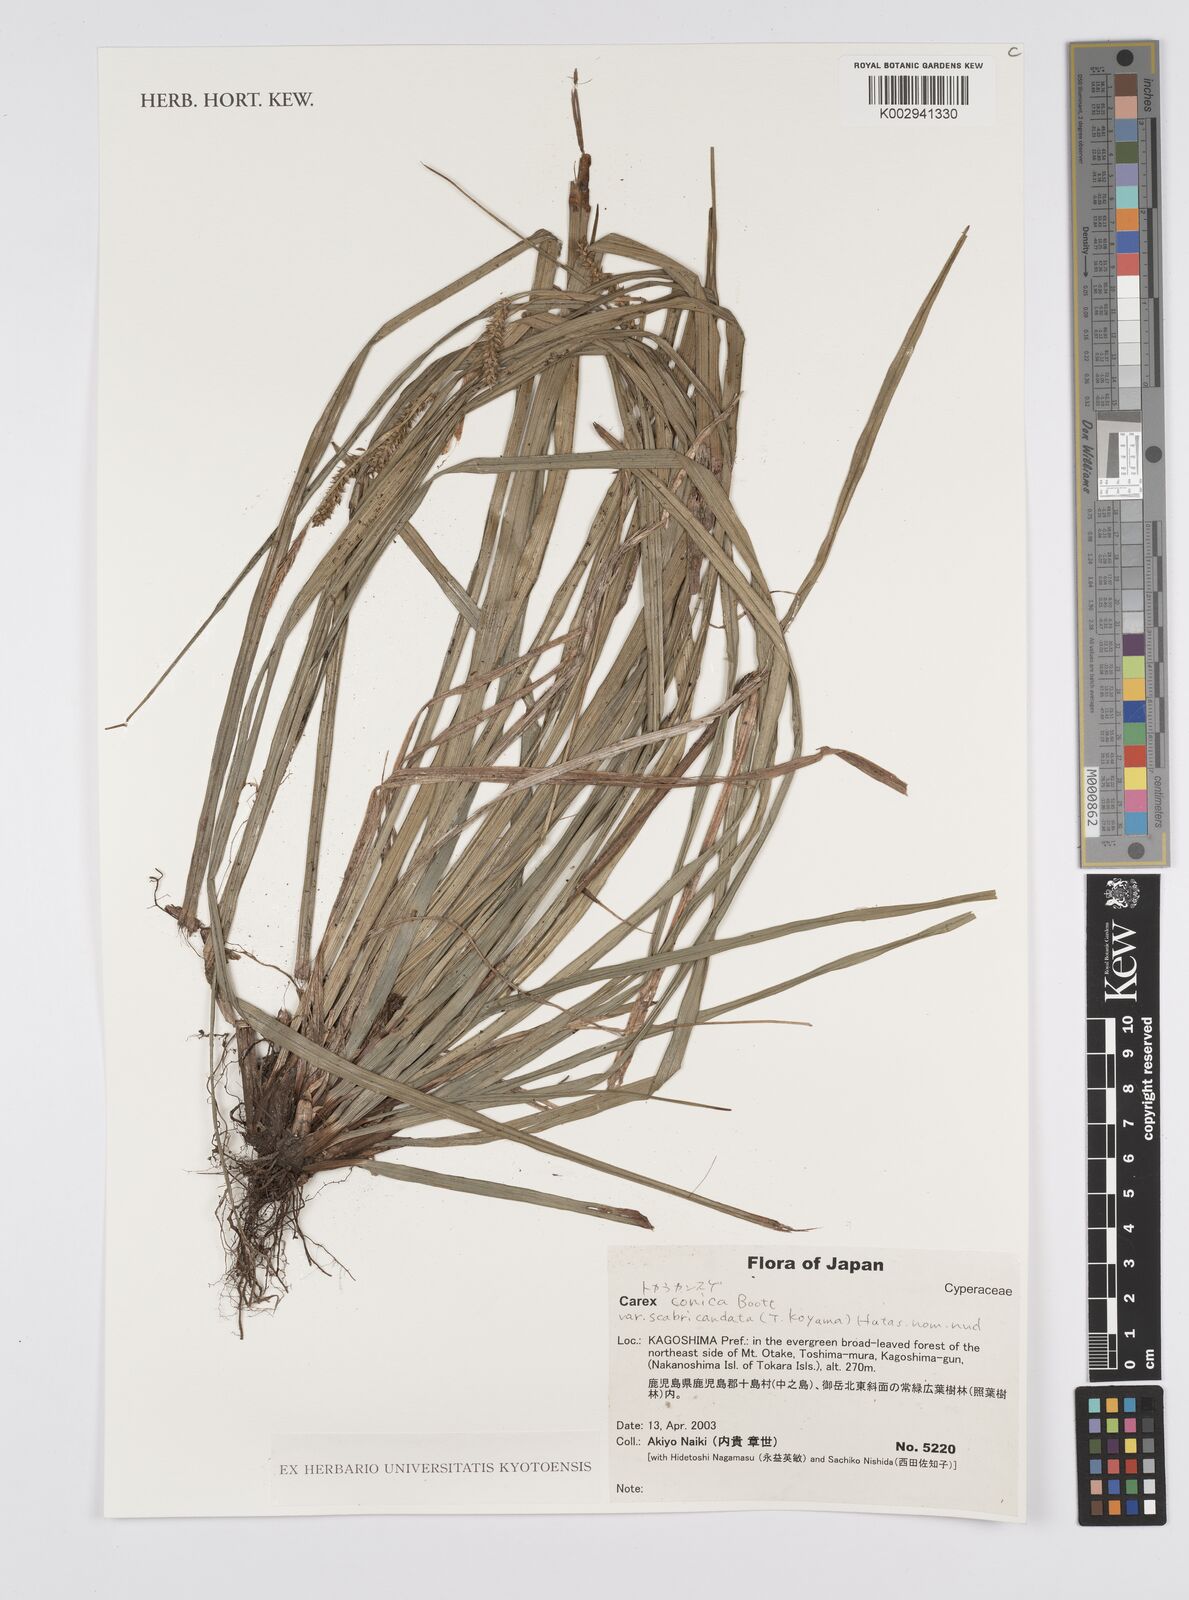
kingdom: Plantae
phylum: Tracheophyta
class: Liliopsida
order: Poales
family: Cyperaceae
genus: Carex
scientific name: Carex conica
